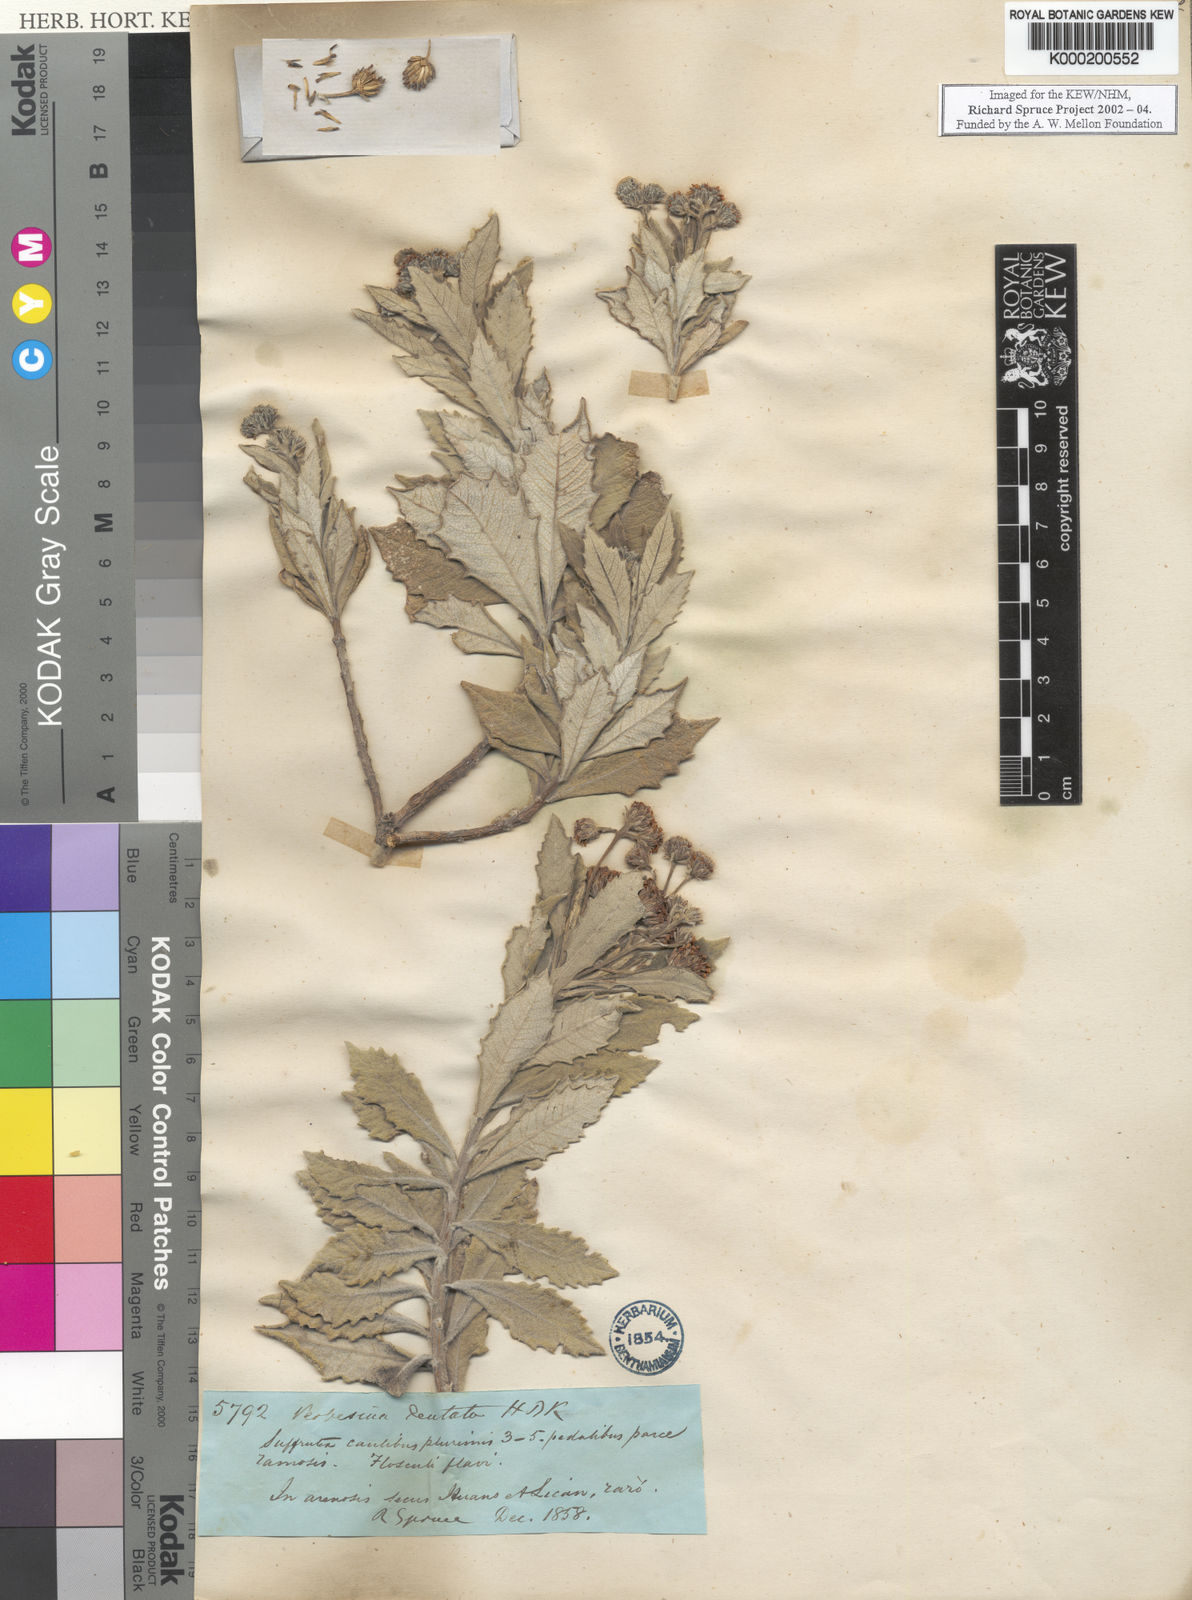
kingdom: Plantae
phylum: Tracheophyta
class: Magnoliopsida
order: Asterales
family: Asteraceae
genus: Verbesina
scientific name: Verbesina dentata
